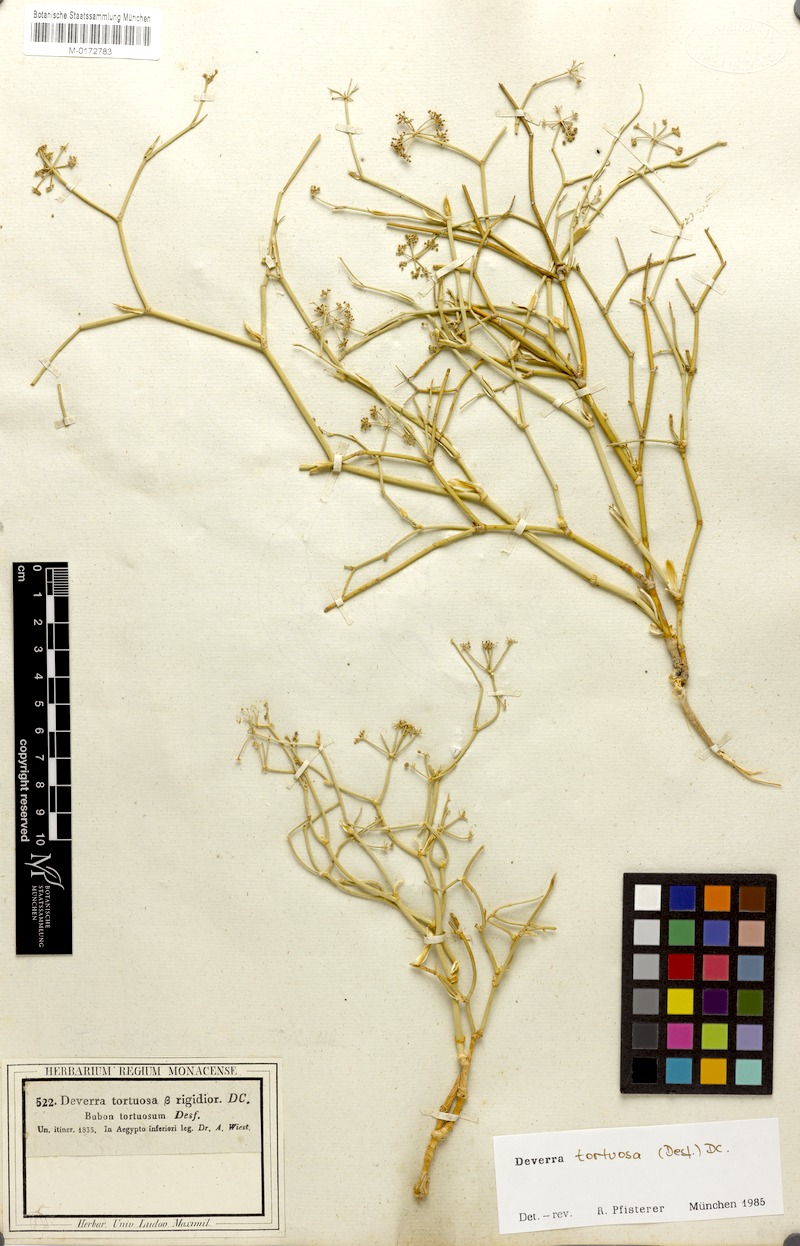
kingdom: Plantae
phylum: Tracheophyta
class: Magnoliopsida
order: Apiales
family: Apiaceae
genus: Deverra
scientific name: Deverra tortuosa
